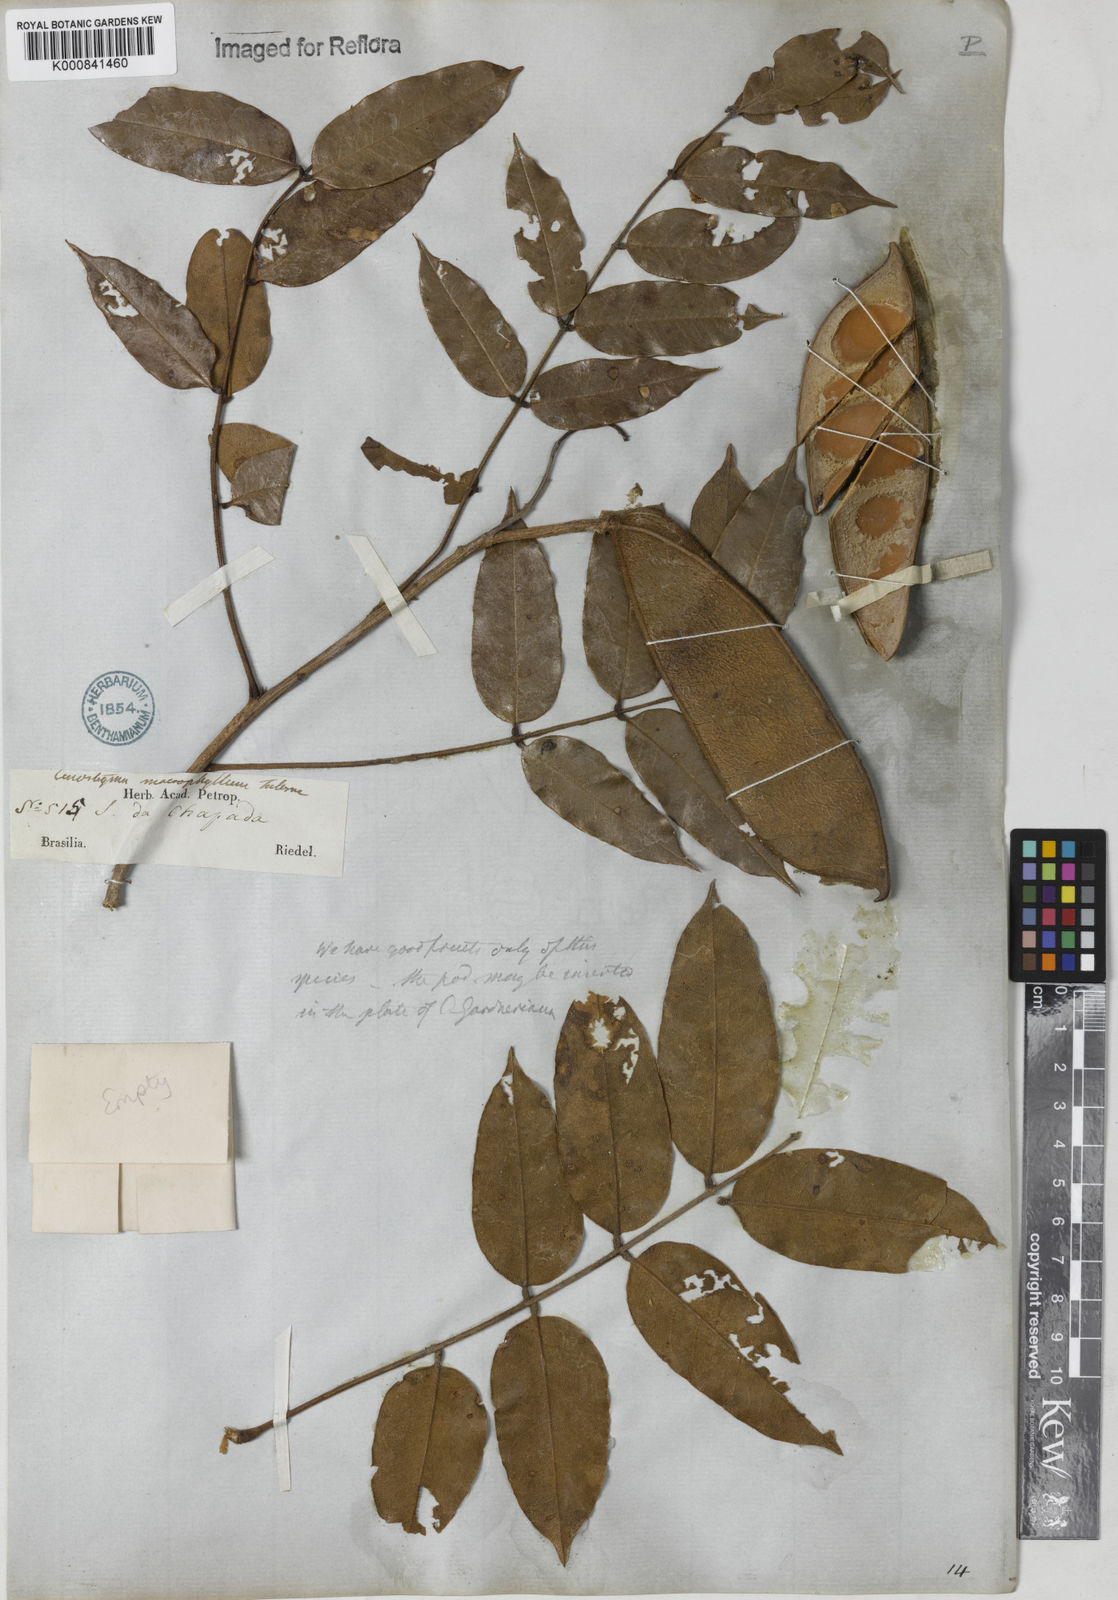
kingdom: Plantae
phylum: Tracheophyta
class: Magnoliopsida
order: Fabales
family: Fabaceae
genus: Cenostigma
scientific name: Cenostigma macrophyllum
